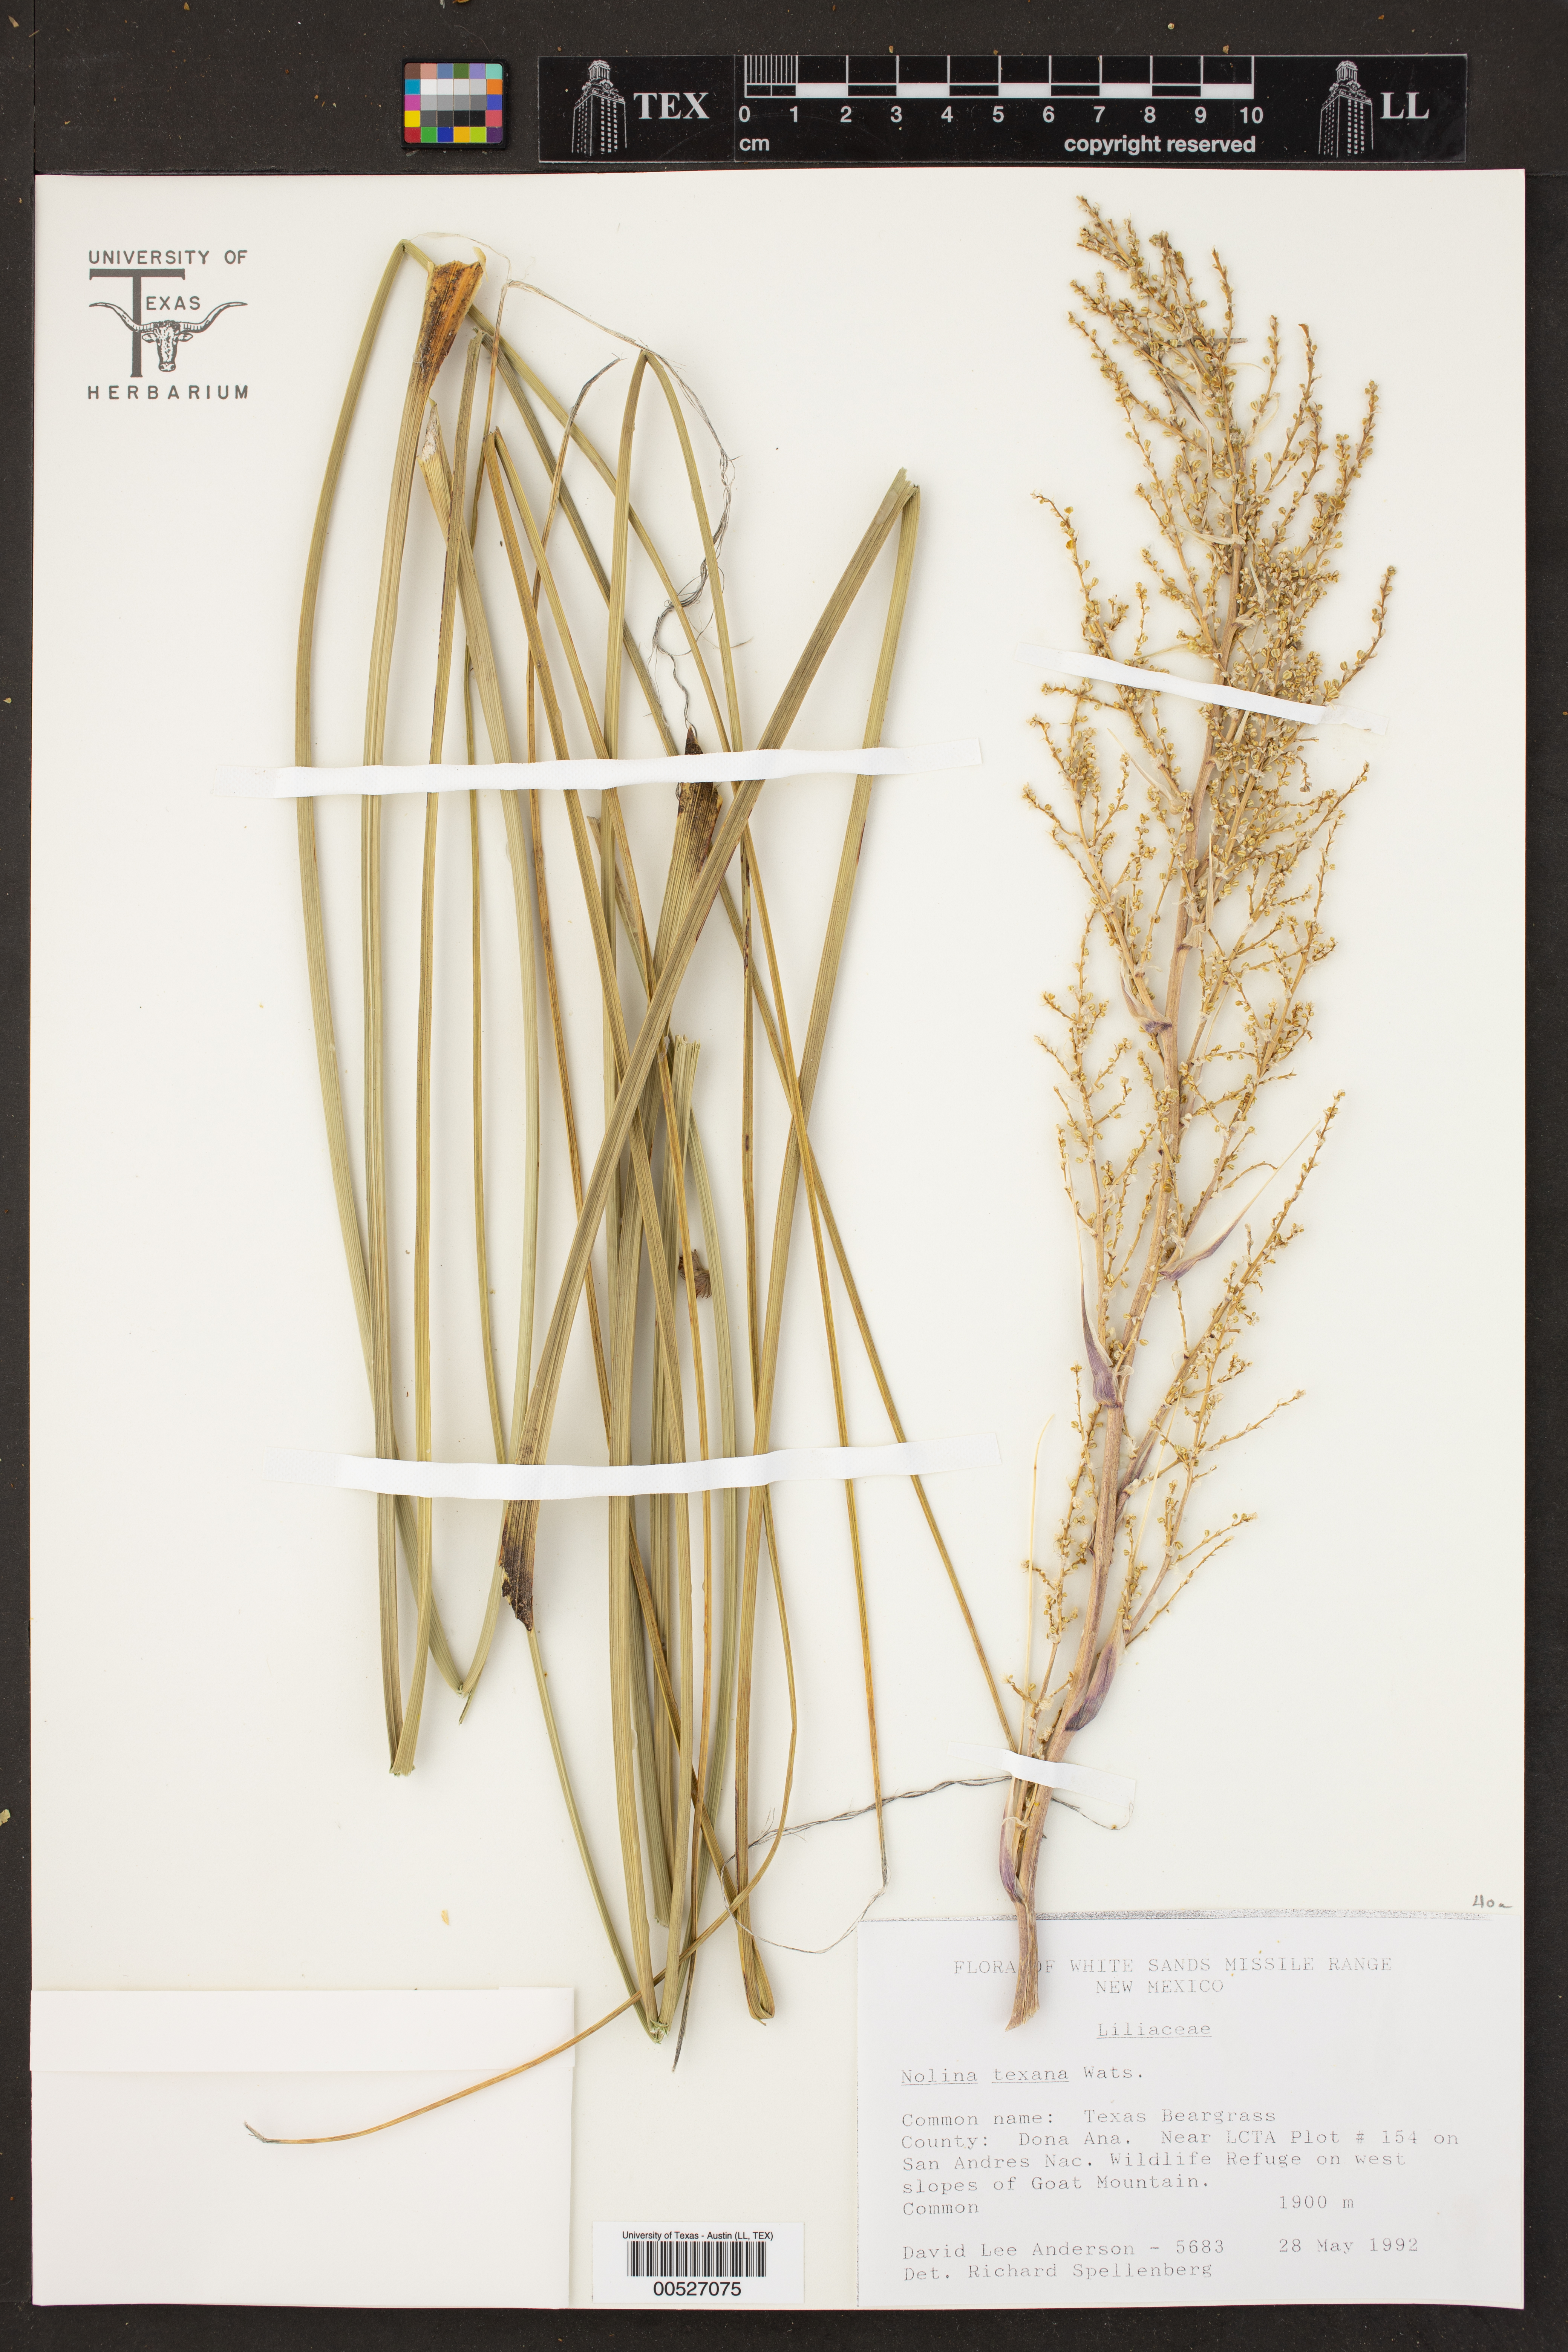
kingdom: Plantae
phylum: Tracheophyta
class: Liliopsida
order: Asparagales
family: Asparagaceae
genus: Nolina
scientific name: Nolina texana
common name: Texas sacahuiste
